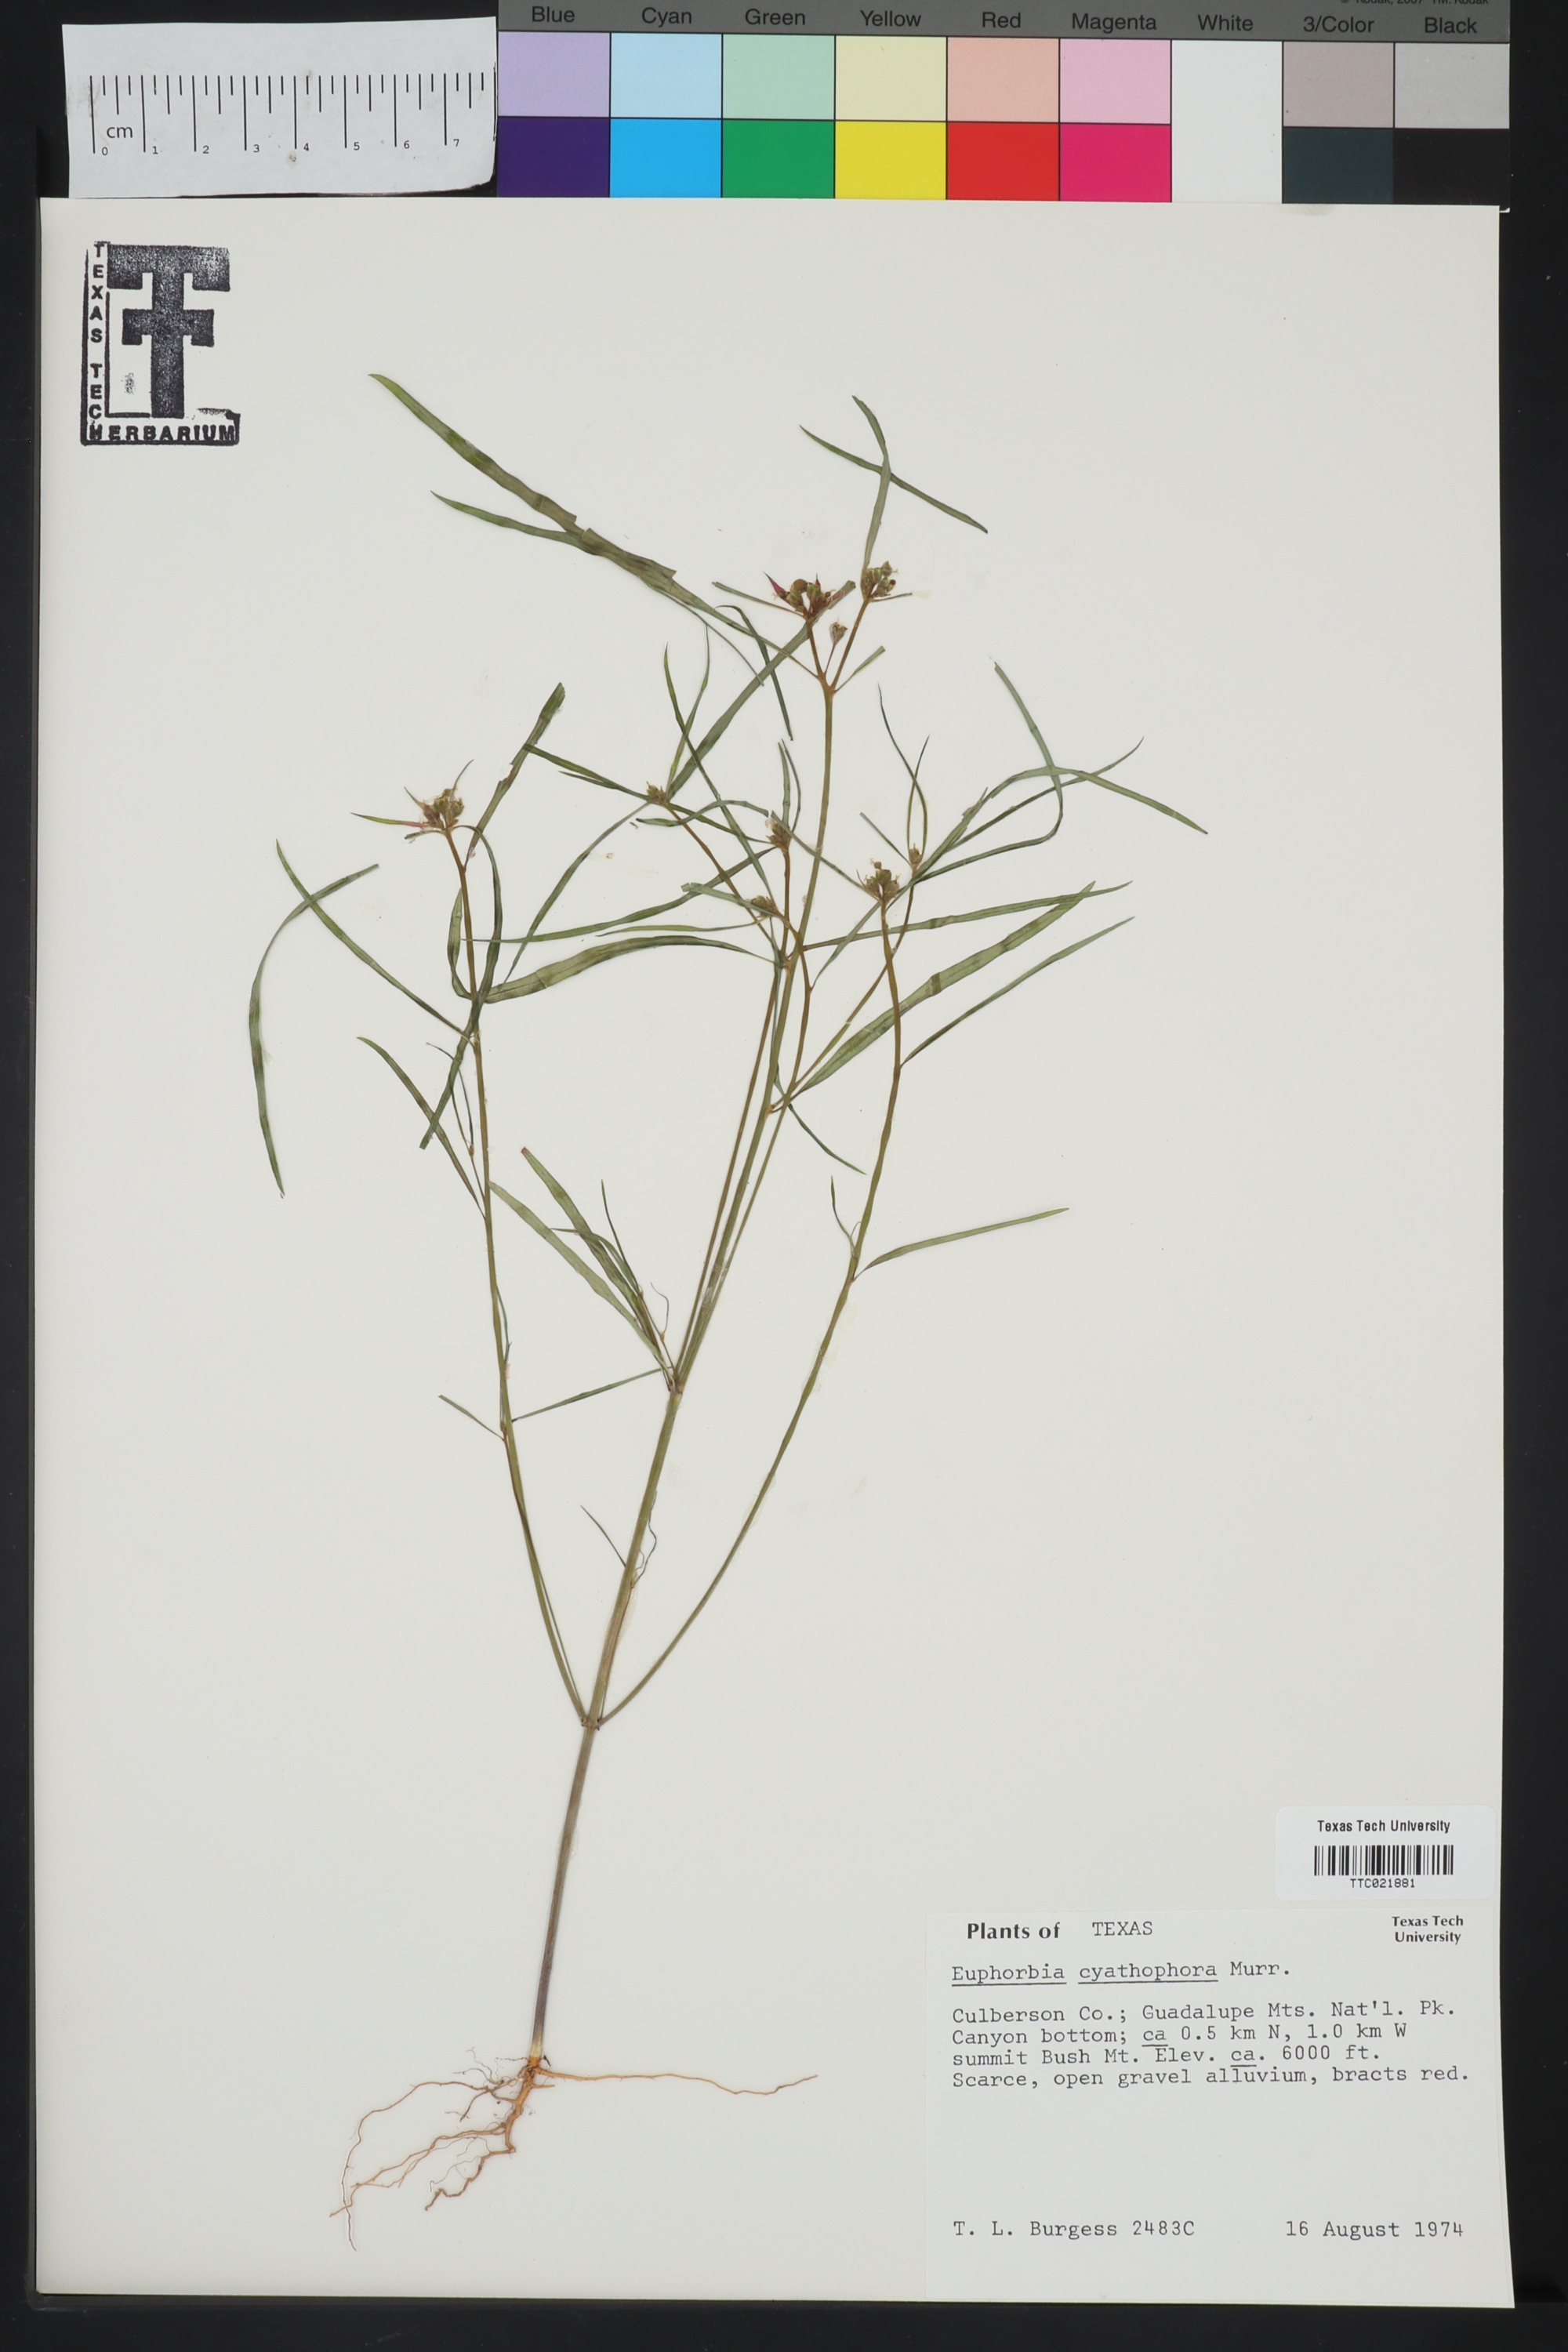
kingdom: Plantae
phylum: Tracheophyta
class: Magnoliopsida
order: Malpighiales
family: Euphorbiaceae
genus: Euphorbia
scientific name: Euphorbia heterophylla
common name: Mexican fireplant
